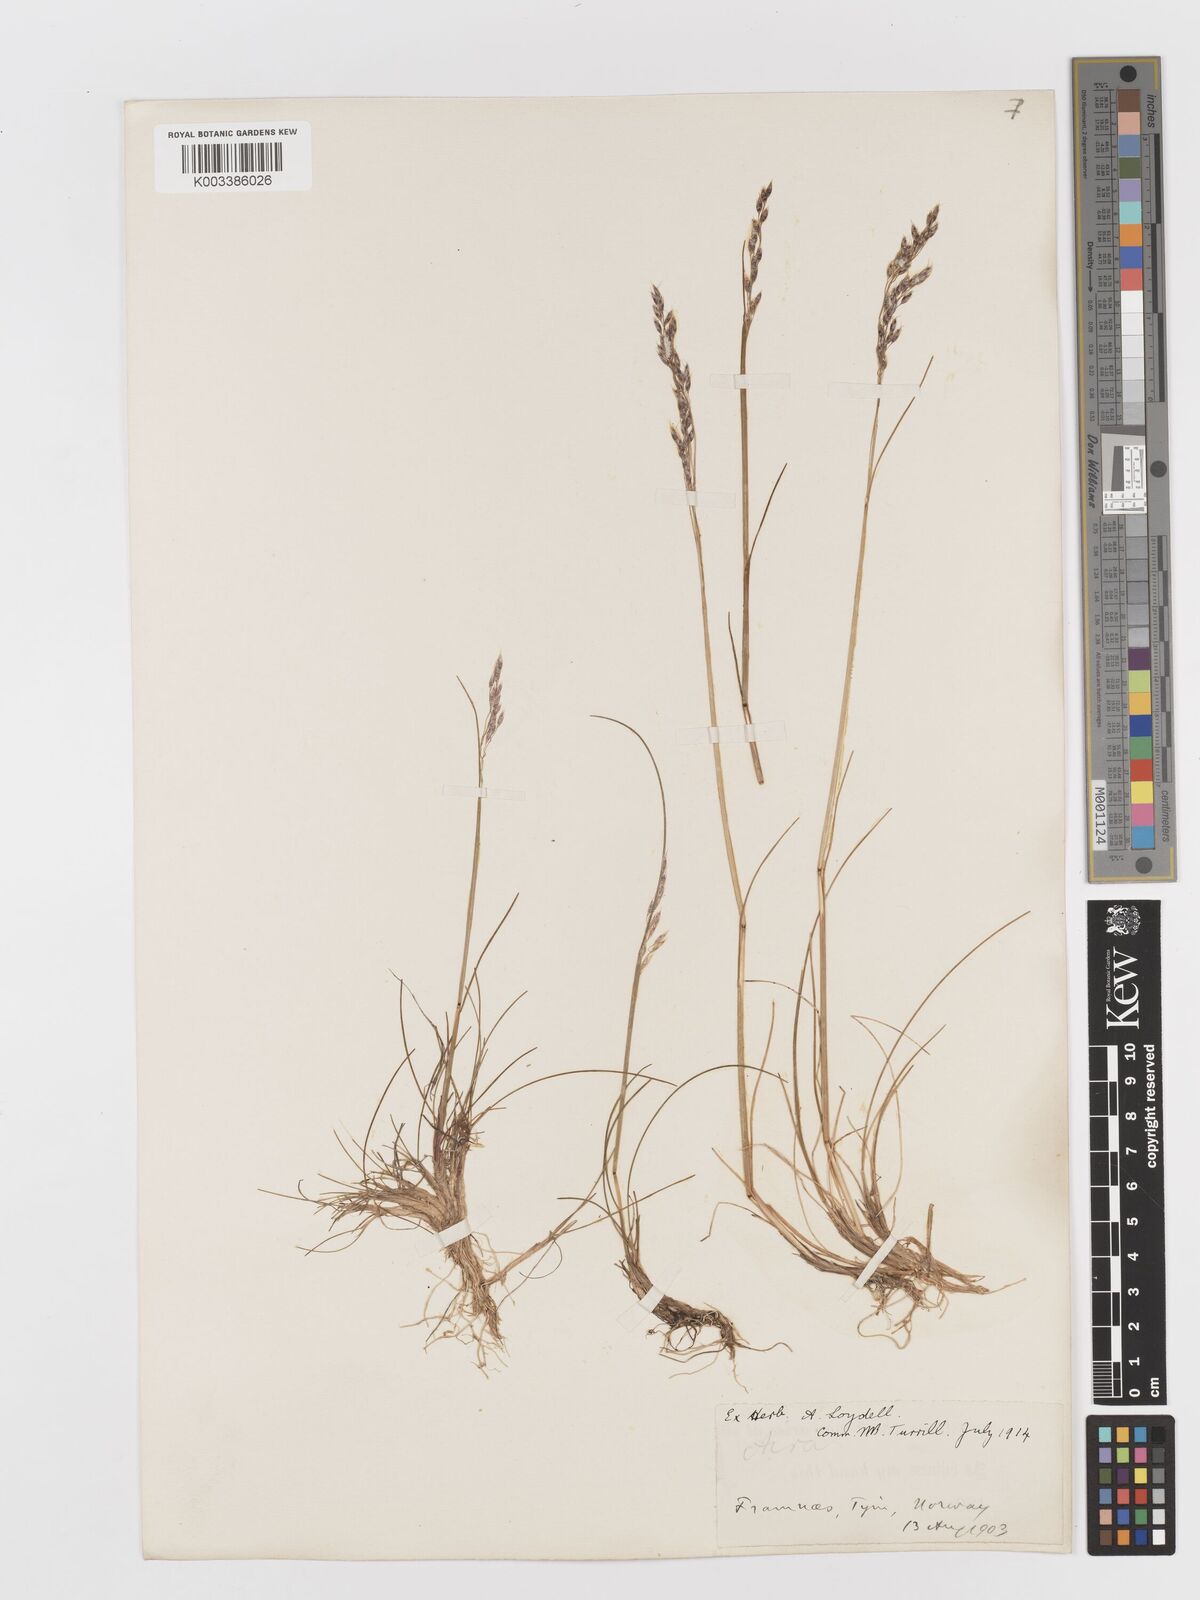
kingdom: Plantae
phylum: Tracheophyta
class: Liliopsida
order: Poales
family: Poaceae
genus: Avenella
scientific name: Avenella flexuosa
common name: Wavy hairgrass
